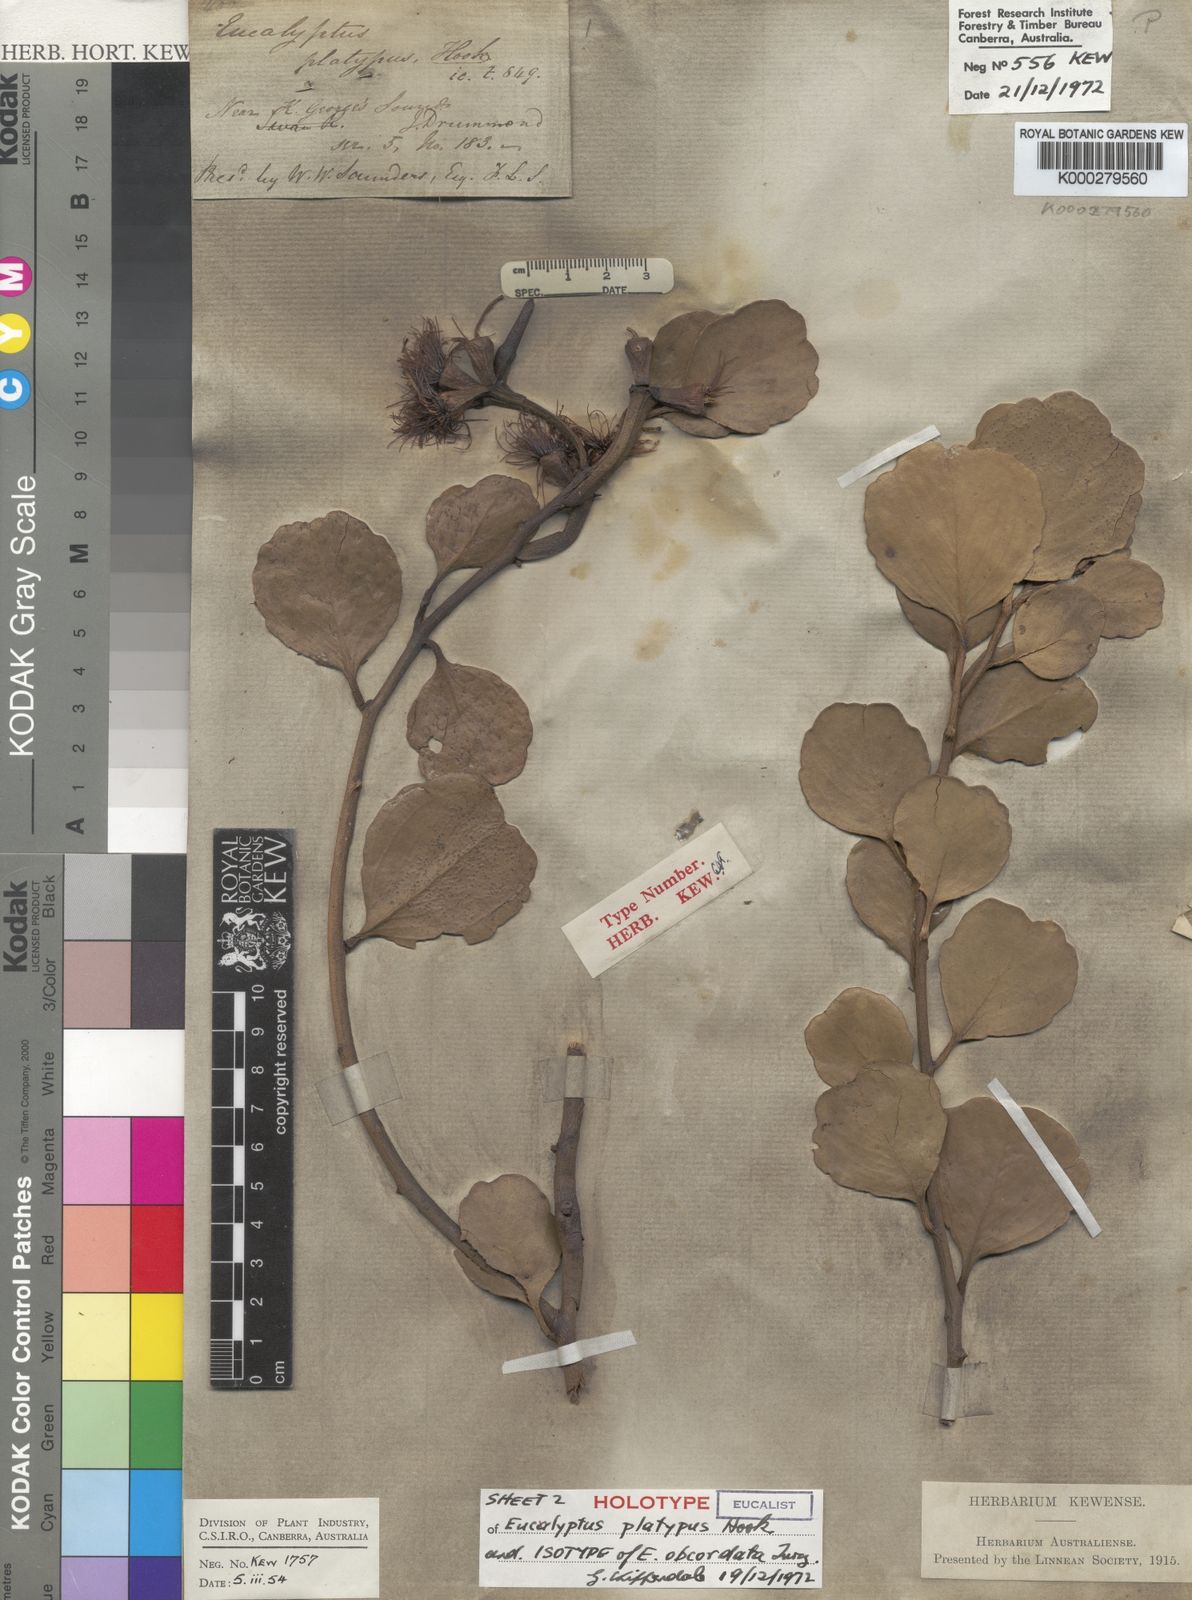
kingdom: Plantae
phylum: Tracheophyta
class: Magnoliopsida
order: Myrtales
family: Myrtaceae
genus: Eucalyptus
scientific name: Eucalyptus platypus
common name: Moort
